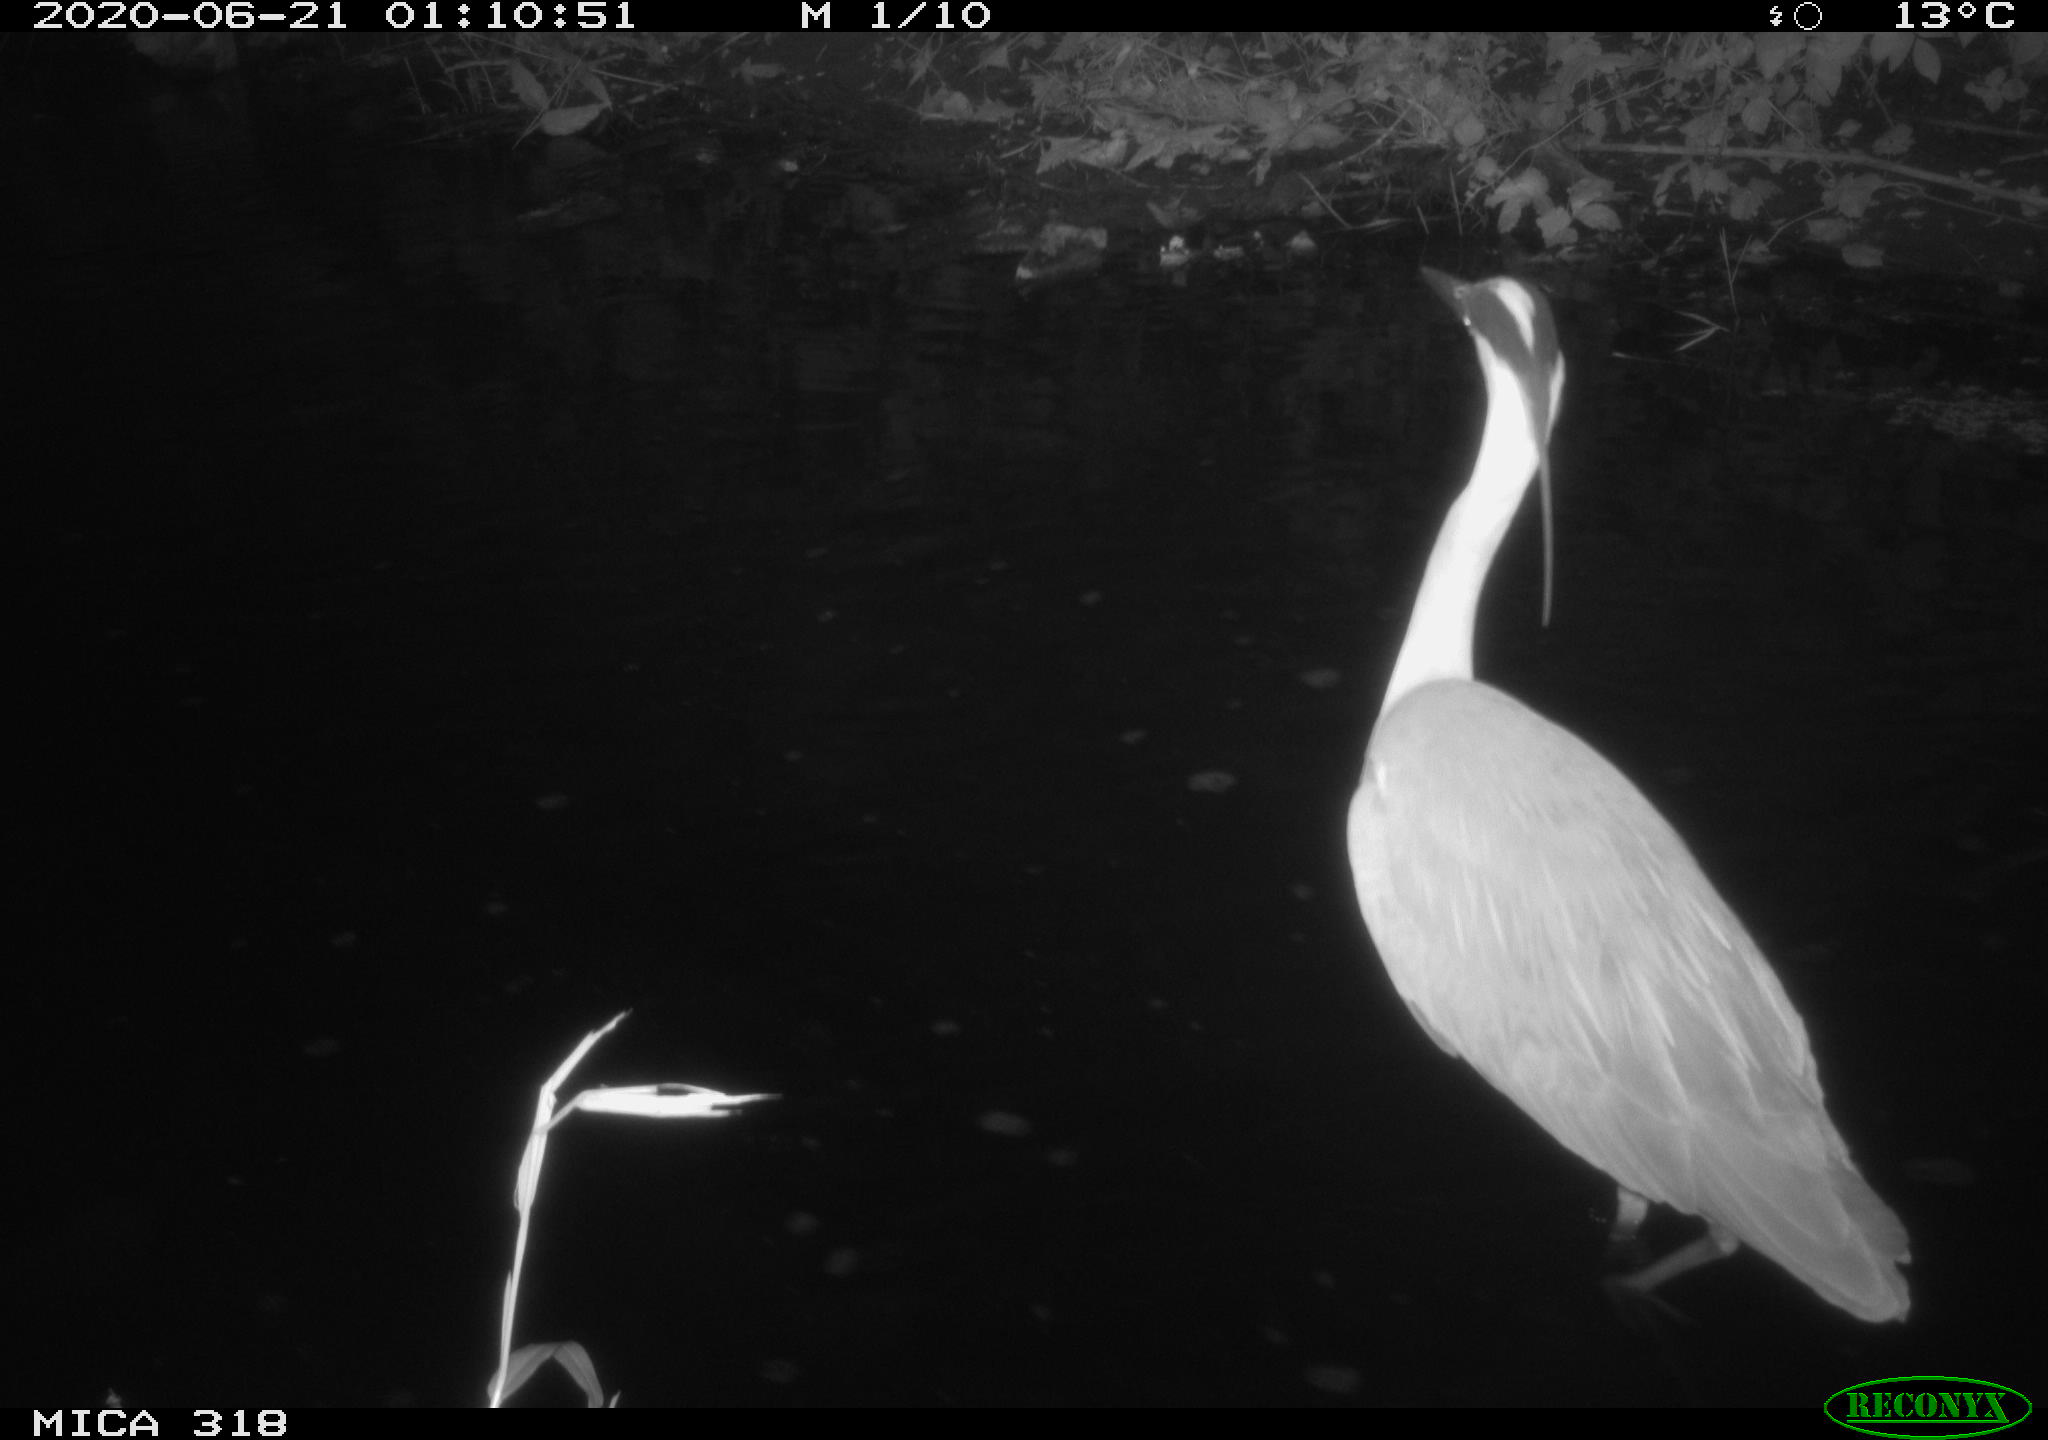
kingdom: Animalia
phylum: Chordata
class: Aves
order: Pelecaniformes
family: Ardeidae
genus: Ardea
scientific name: Ardea cinerea
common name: Grey heron
